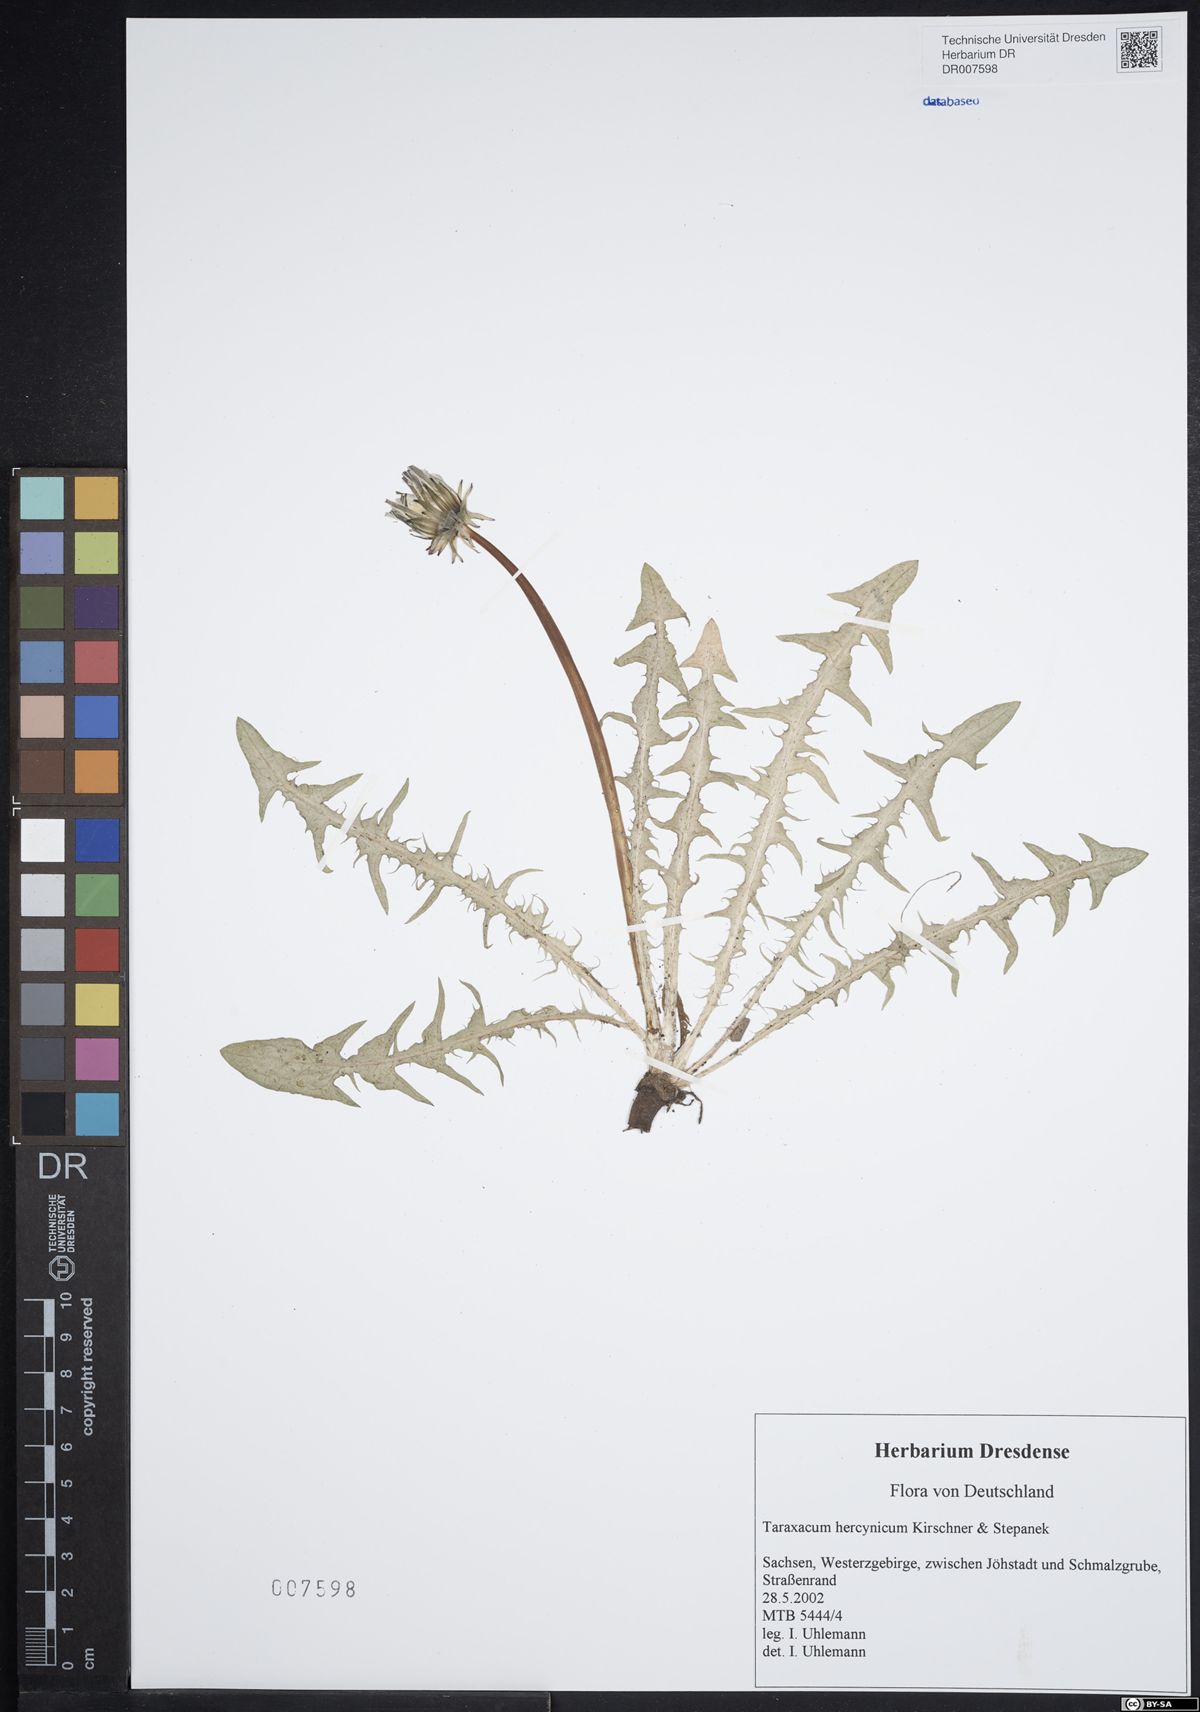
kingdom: Plantae
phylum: Tracheophyta
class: Magnoliopsida
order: Asterales
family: Asteraceae
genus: Taraxacum
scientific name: Taraxacum hercynicum
